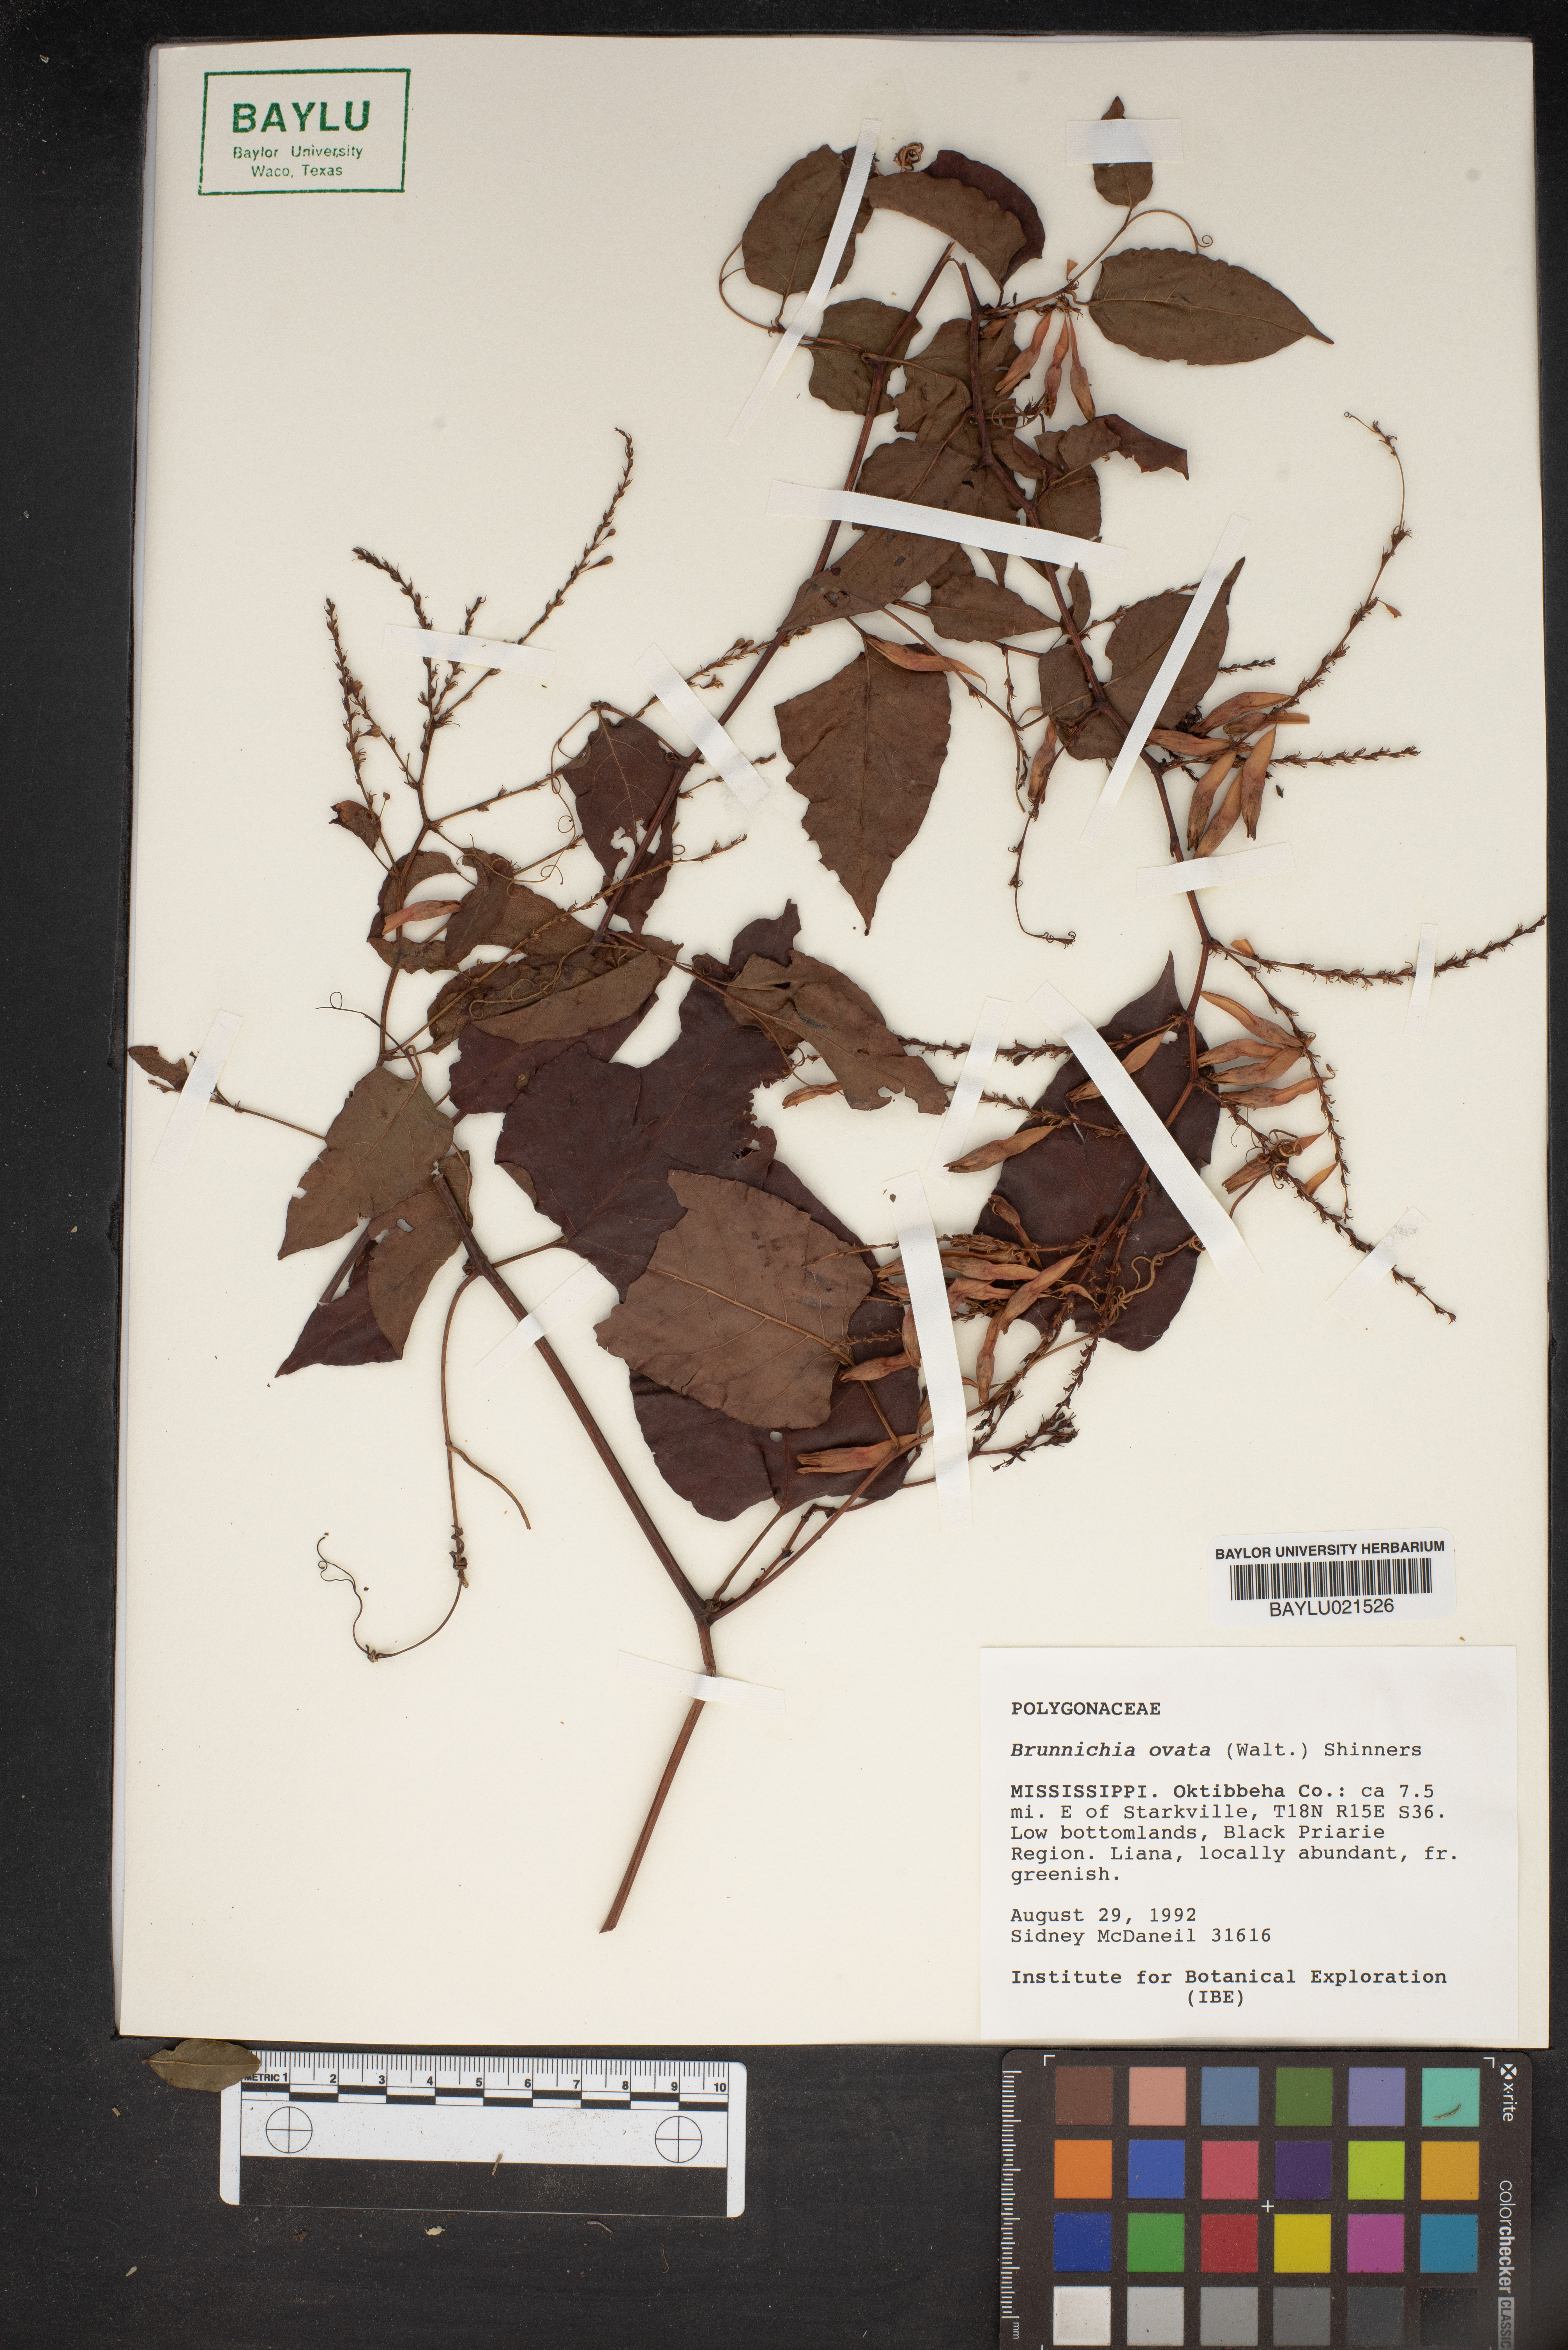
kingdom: Plantae
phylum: Tracheophyta
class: Magnoliopsida
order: Caryophyllales
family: Polygonaceae
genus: Brunnichia
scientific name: Brunnichia ovata
